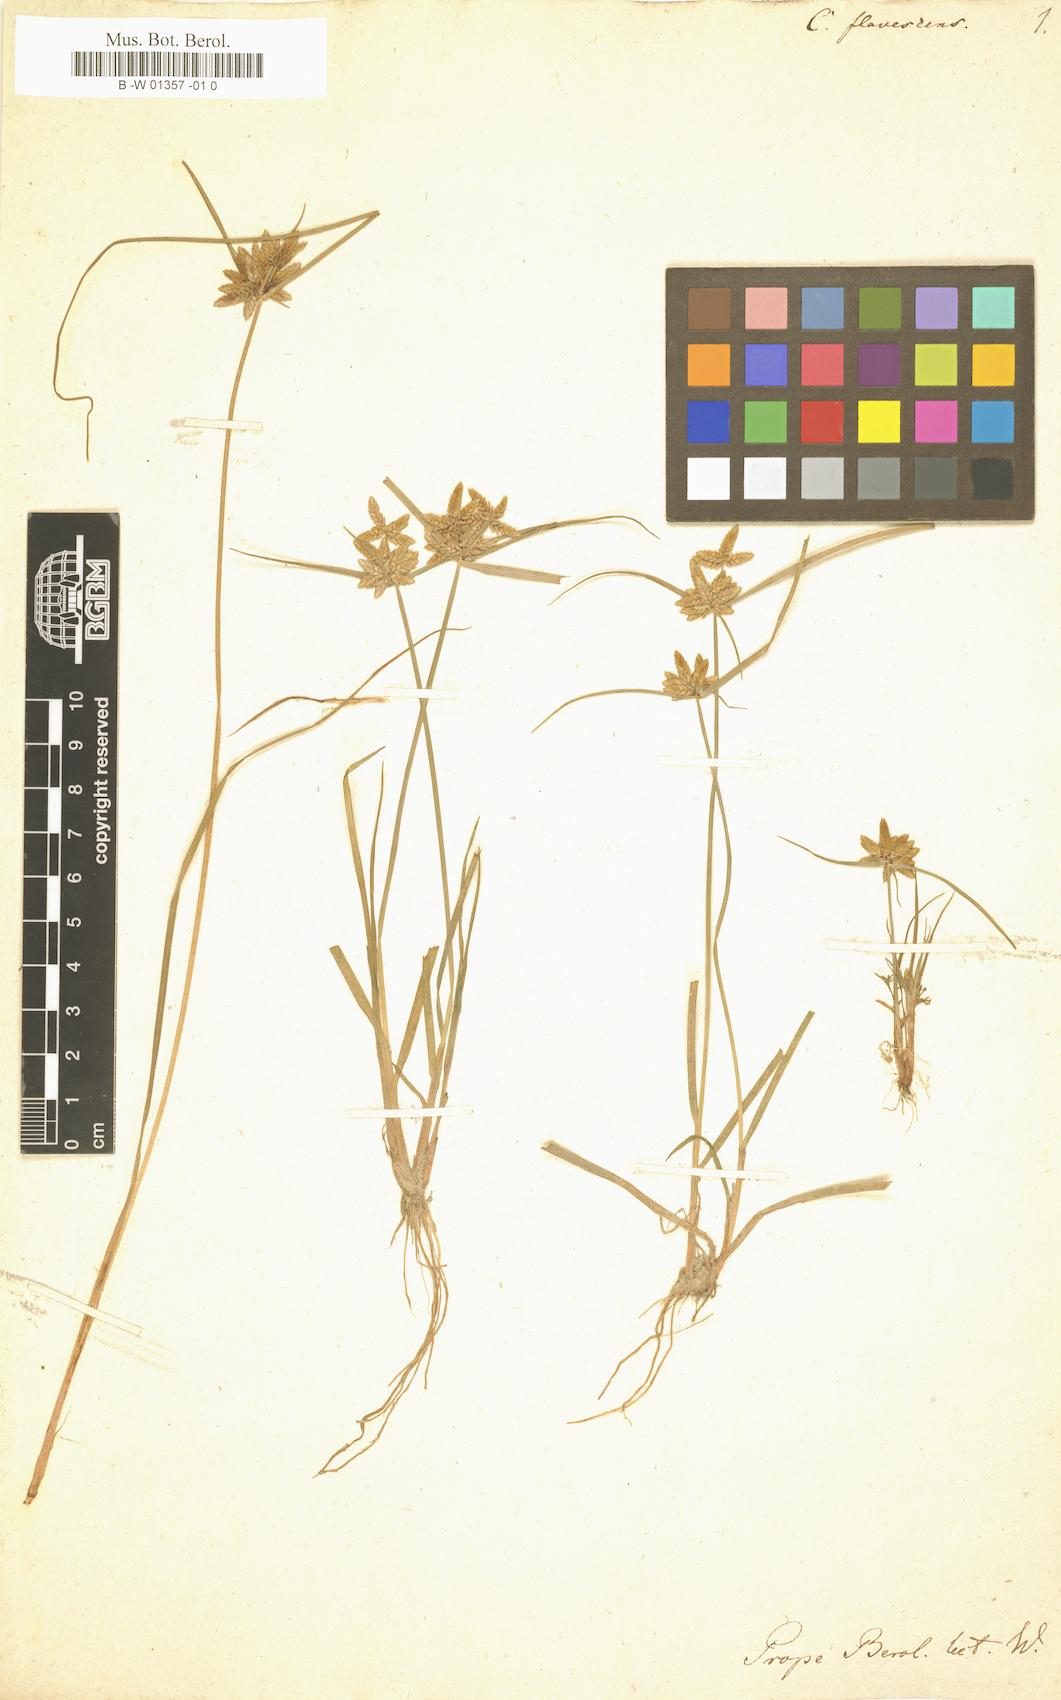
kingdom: Plantae
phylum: Tracheophyta
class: Liliopsida
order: Poales
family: Cyperaceae
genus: Cyperus
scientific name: Cyperus flavescens
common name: Yellow galingale
